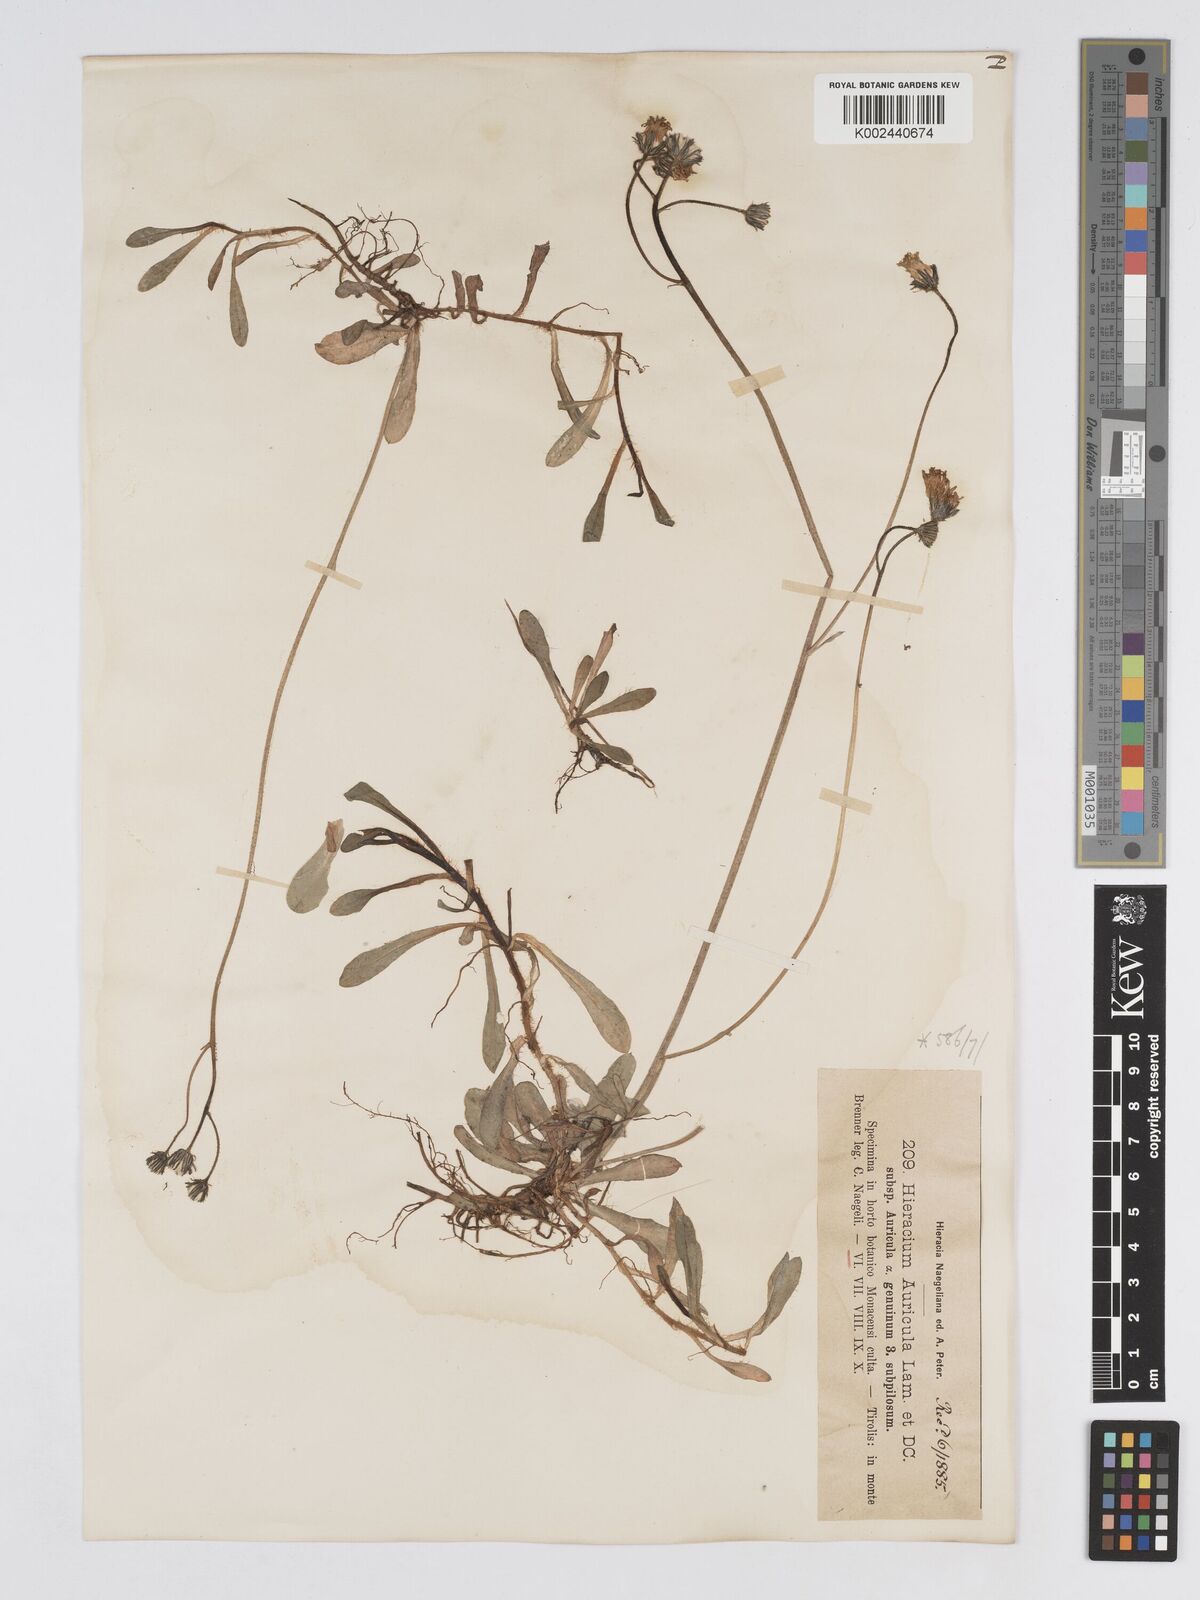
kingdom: Plantae
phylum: Tracheophyta
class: Magnoliopsida
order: Asterales
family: Asteraceae
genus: Pilosella
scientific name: Pilosella floribunda
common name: Glaucous hawkweed
